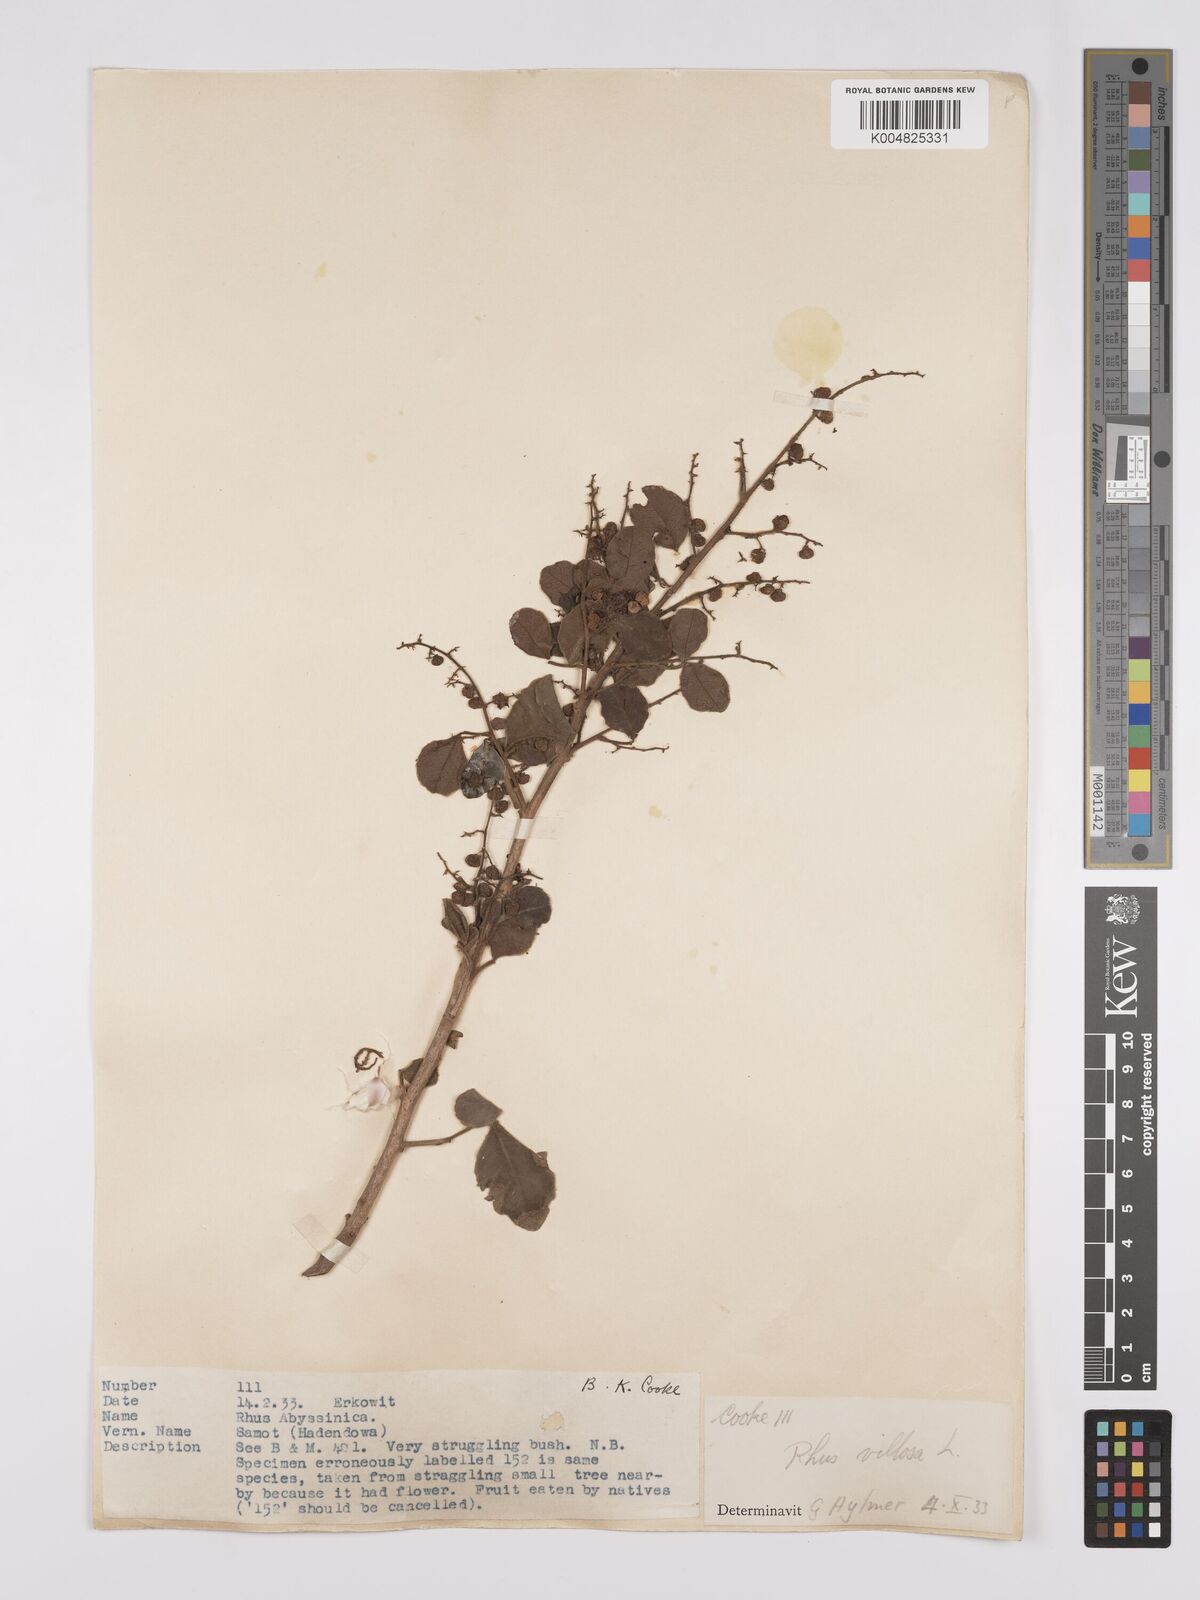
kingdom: Plantae
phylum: Tracheophyta
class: Magnoliopsida
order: Sapindales
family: Anacardiaceae
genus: Searsia
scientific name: Searsia flexicaulis
